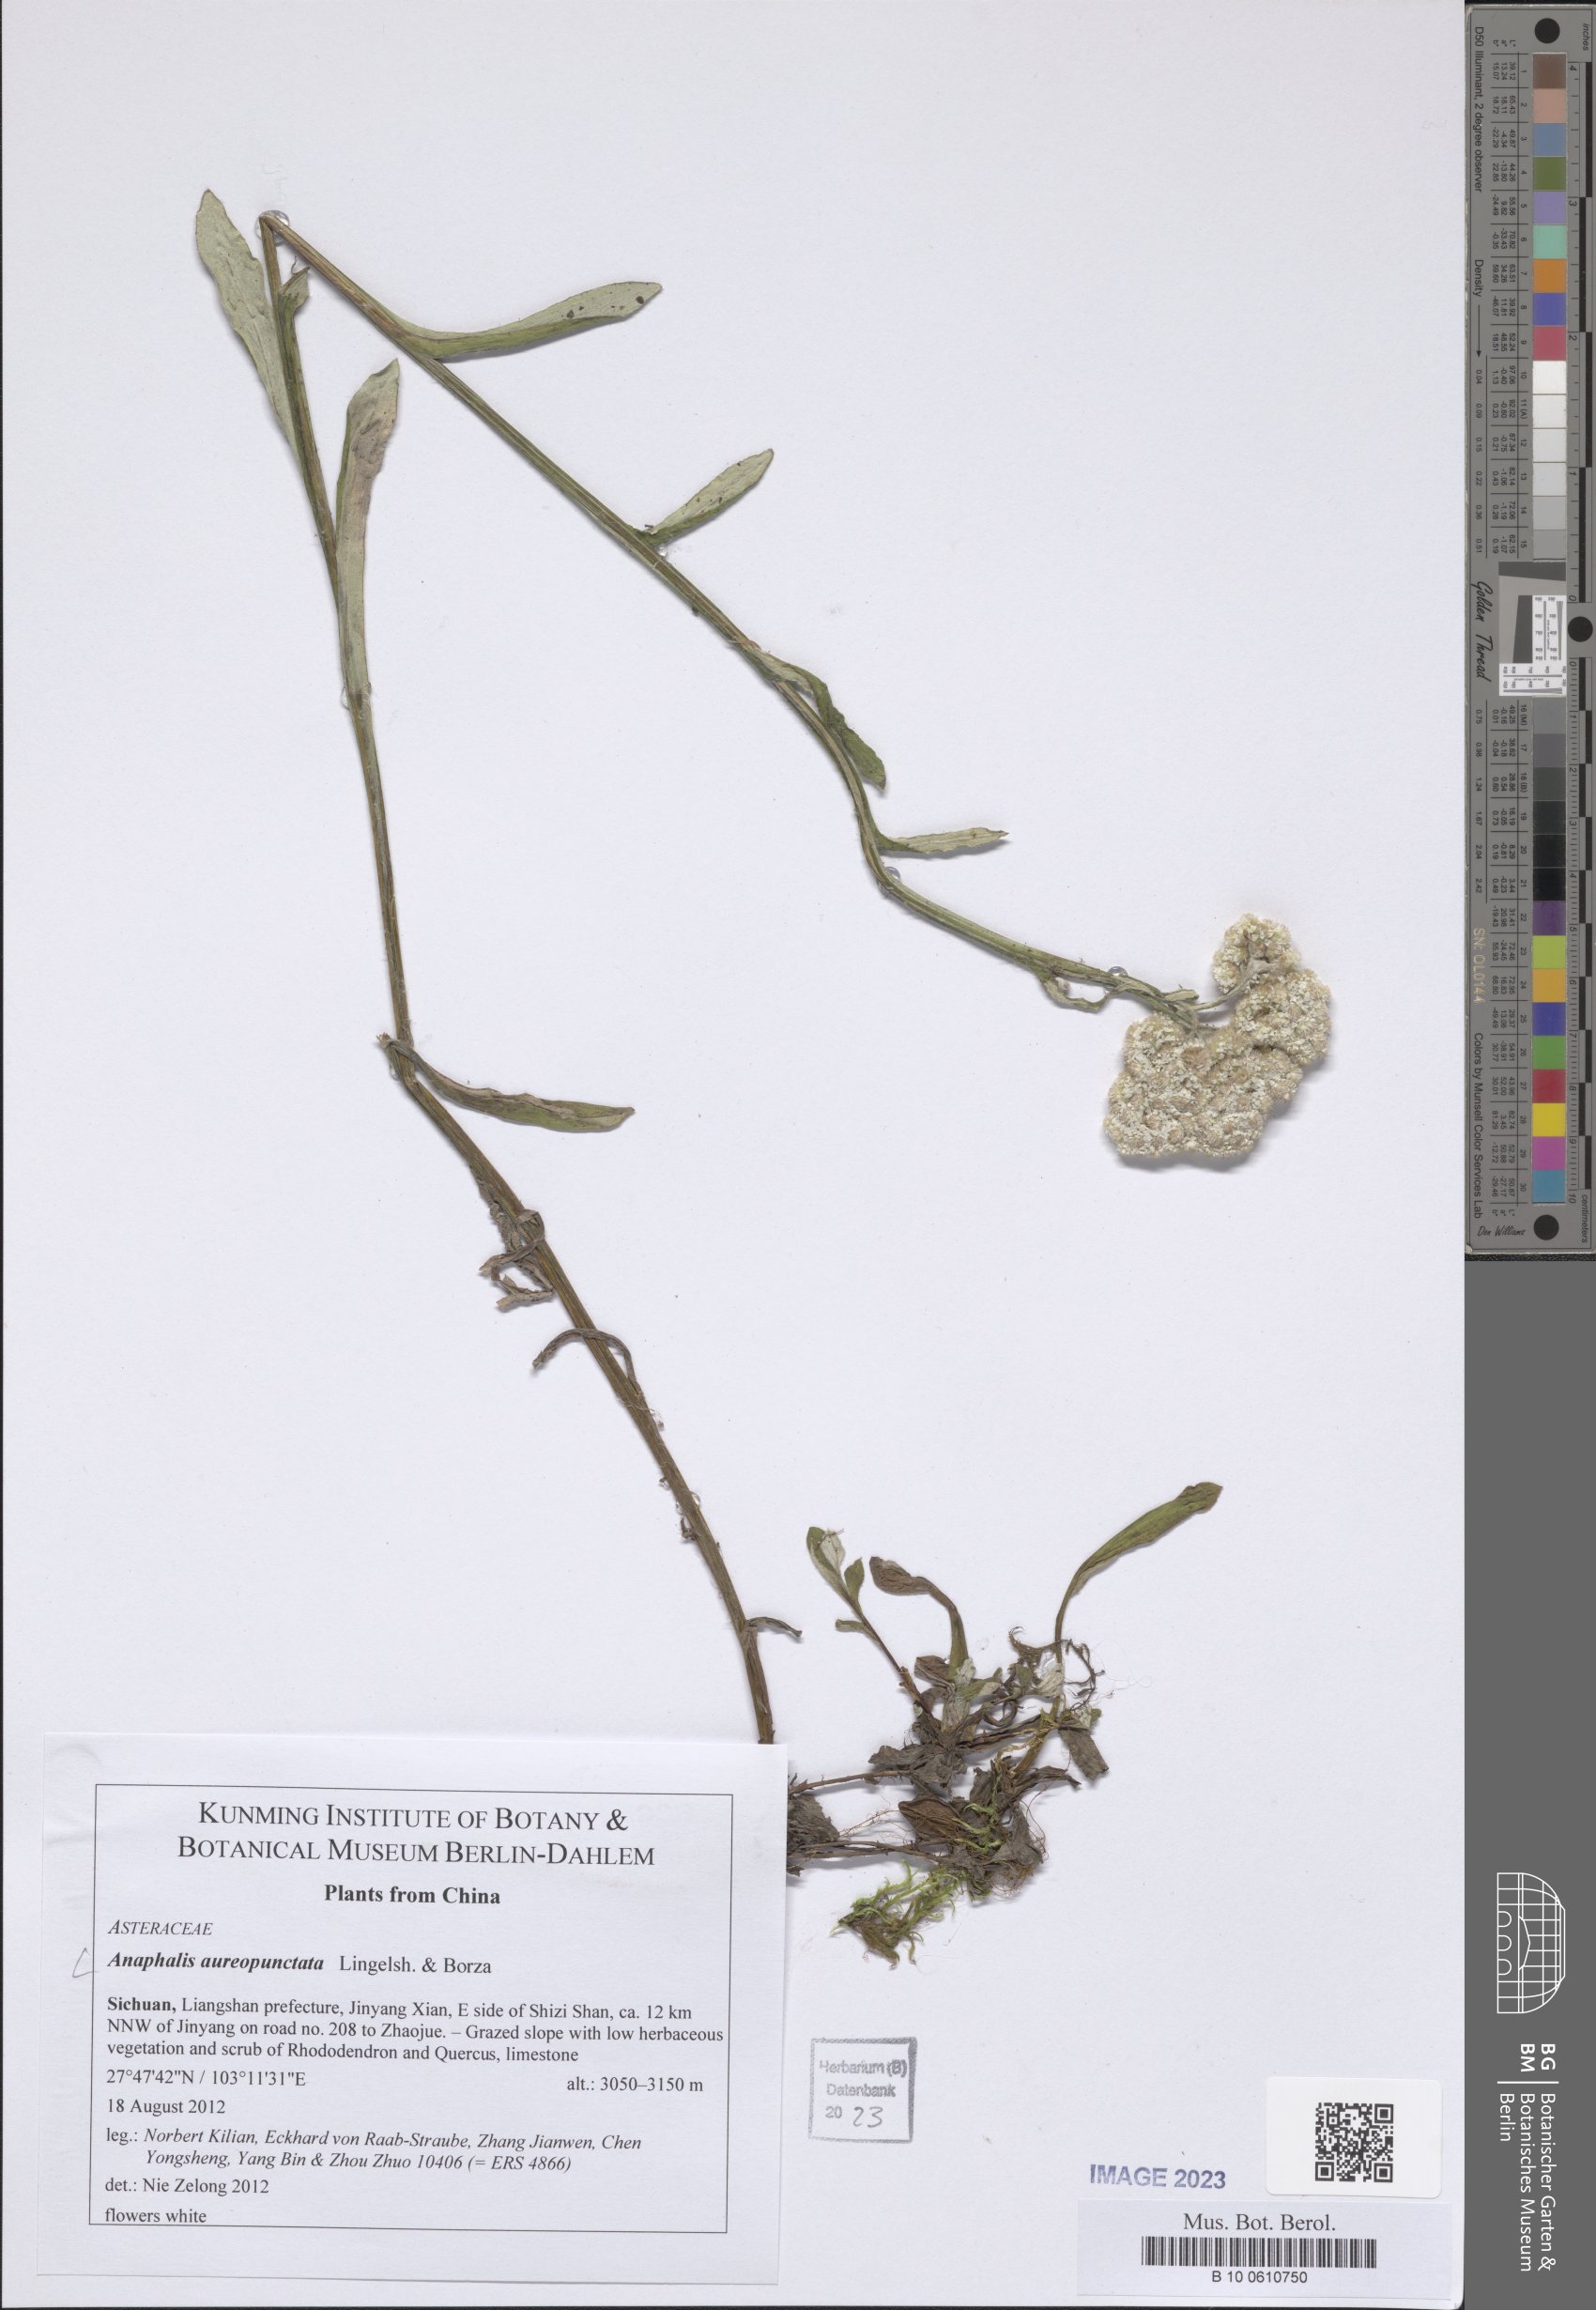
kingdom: Plantae
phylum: Tracheophyta
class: Magnoliopsida
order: Asterales
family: Asteraceae
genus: Anaphalis
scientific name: Anaphalis aureopunctata
